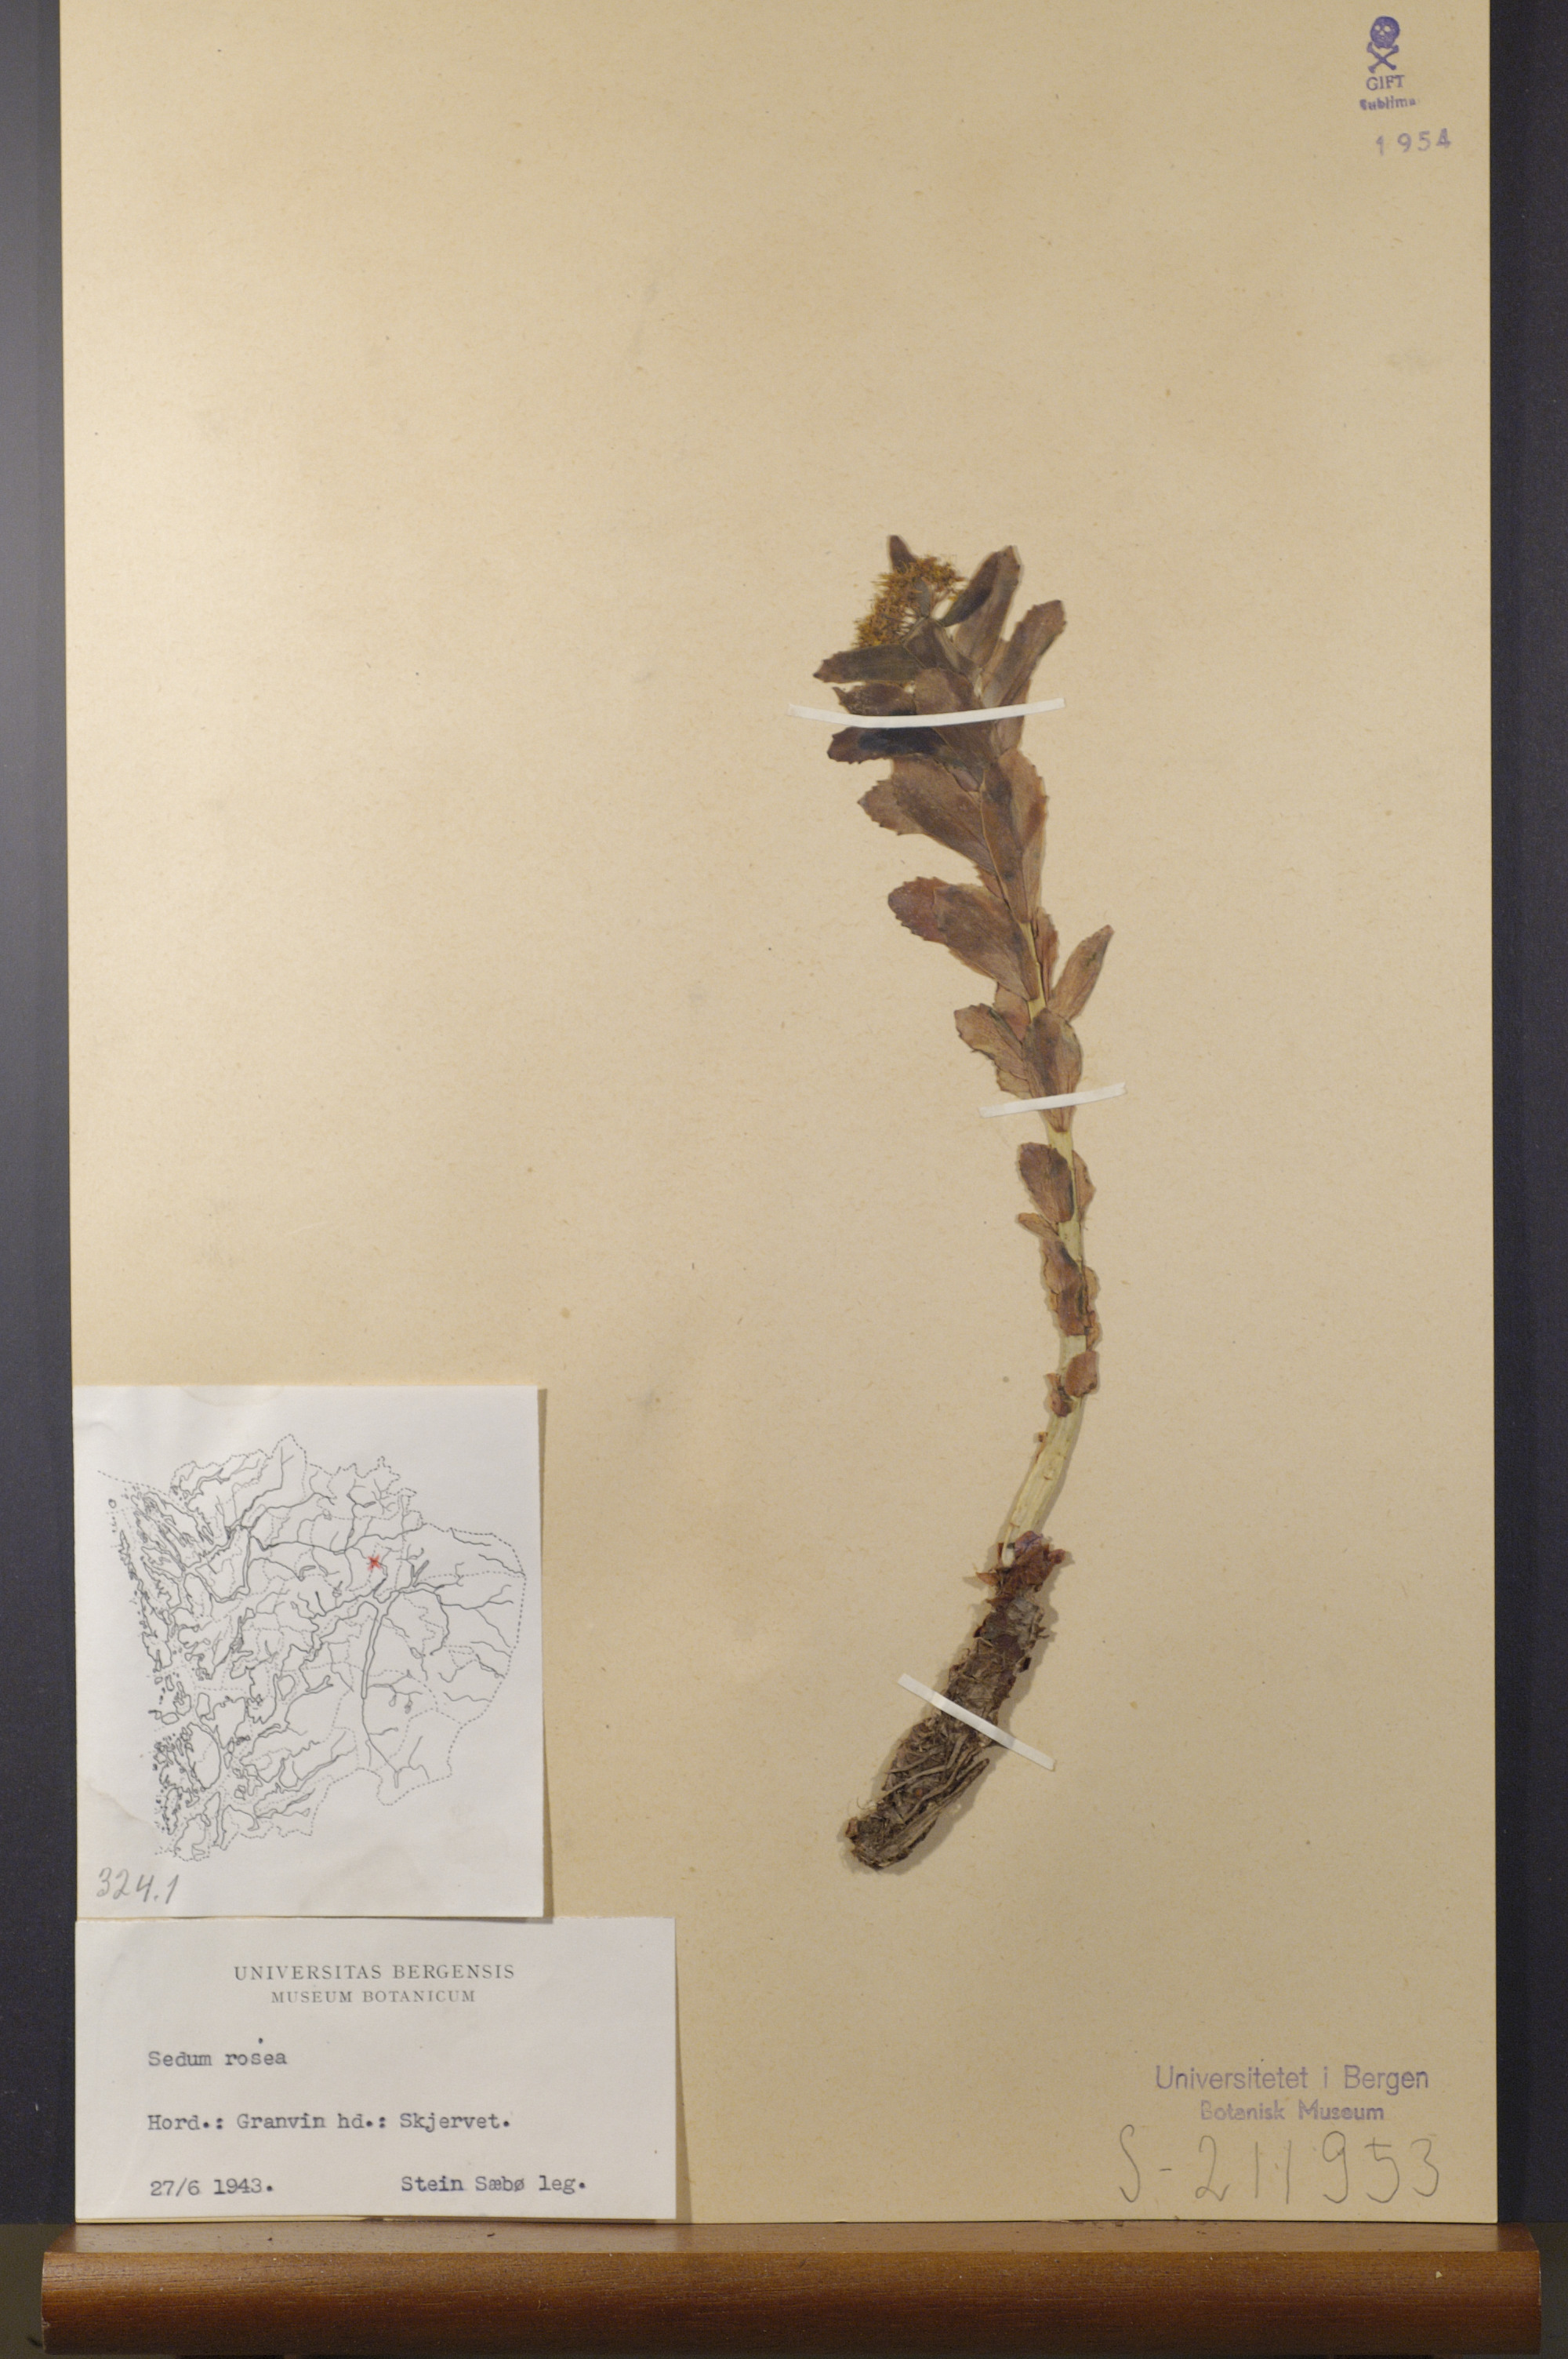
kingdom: Plantae
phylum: Tracheophyta
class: Magnoliopsida
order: Saxifragales
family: Crassulaceae
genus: Rhodiola
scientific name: Rhodiola rosea
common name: Roseroot
